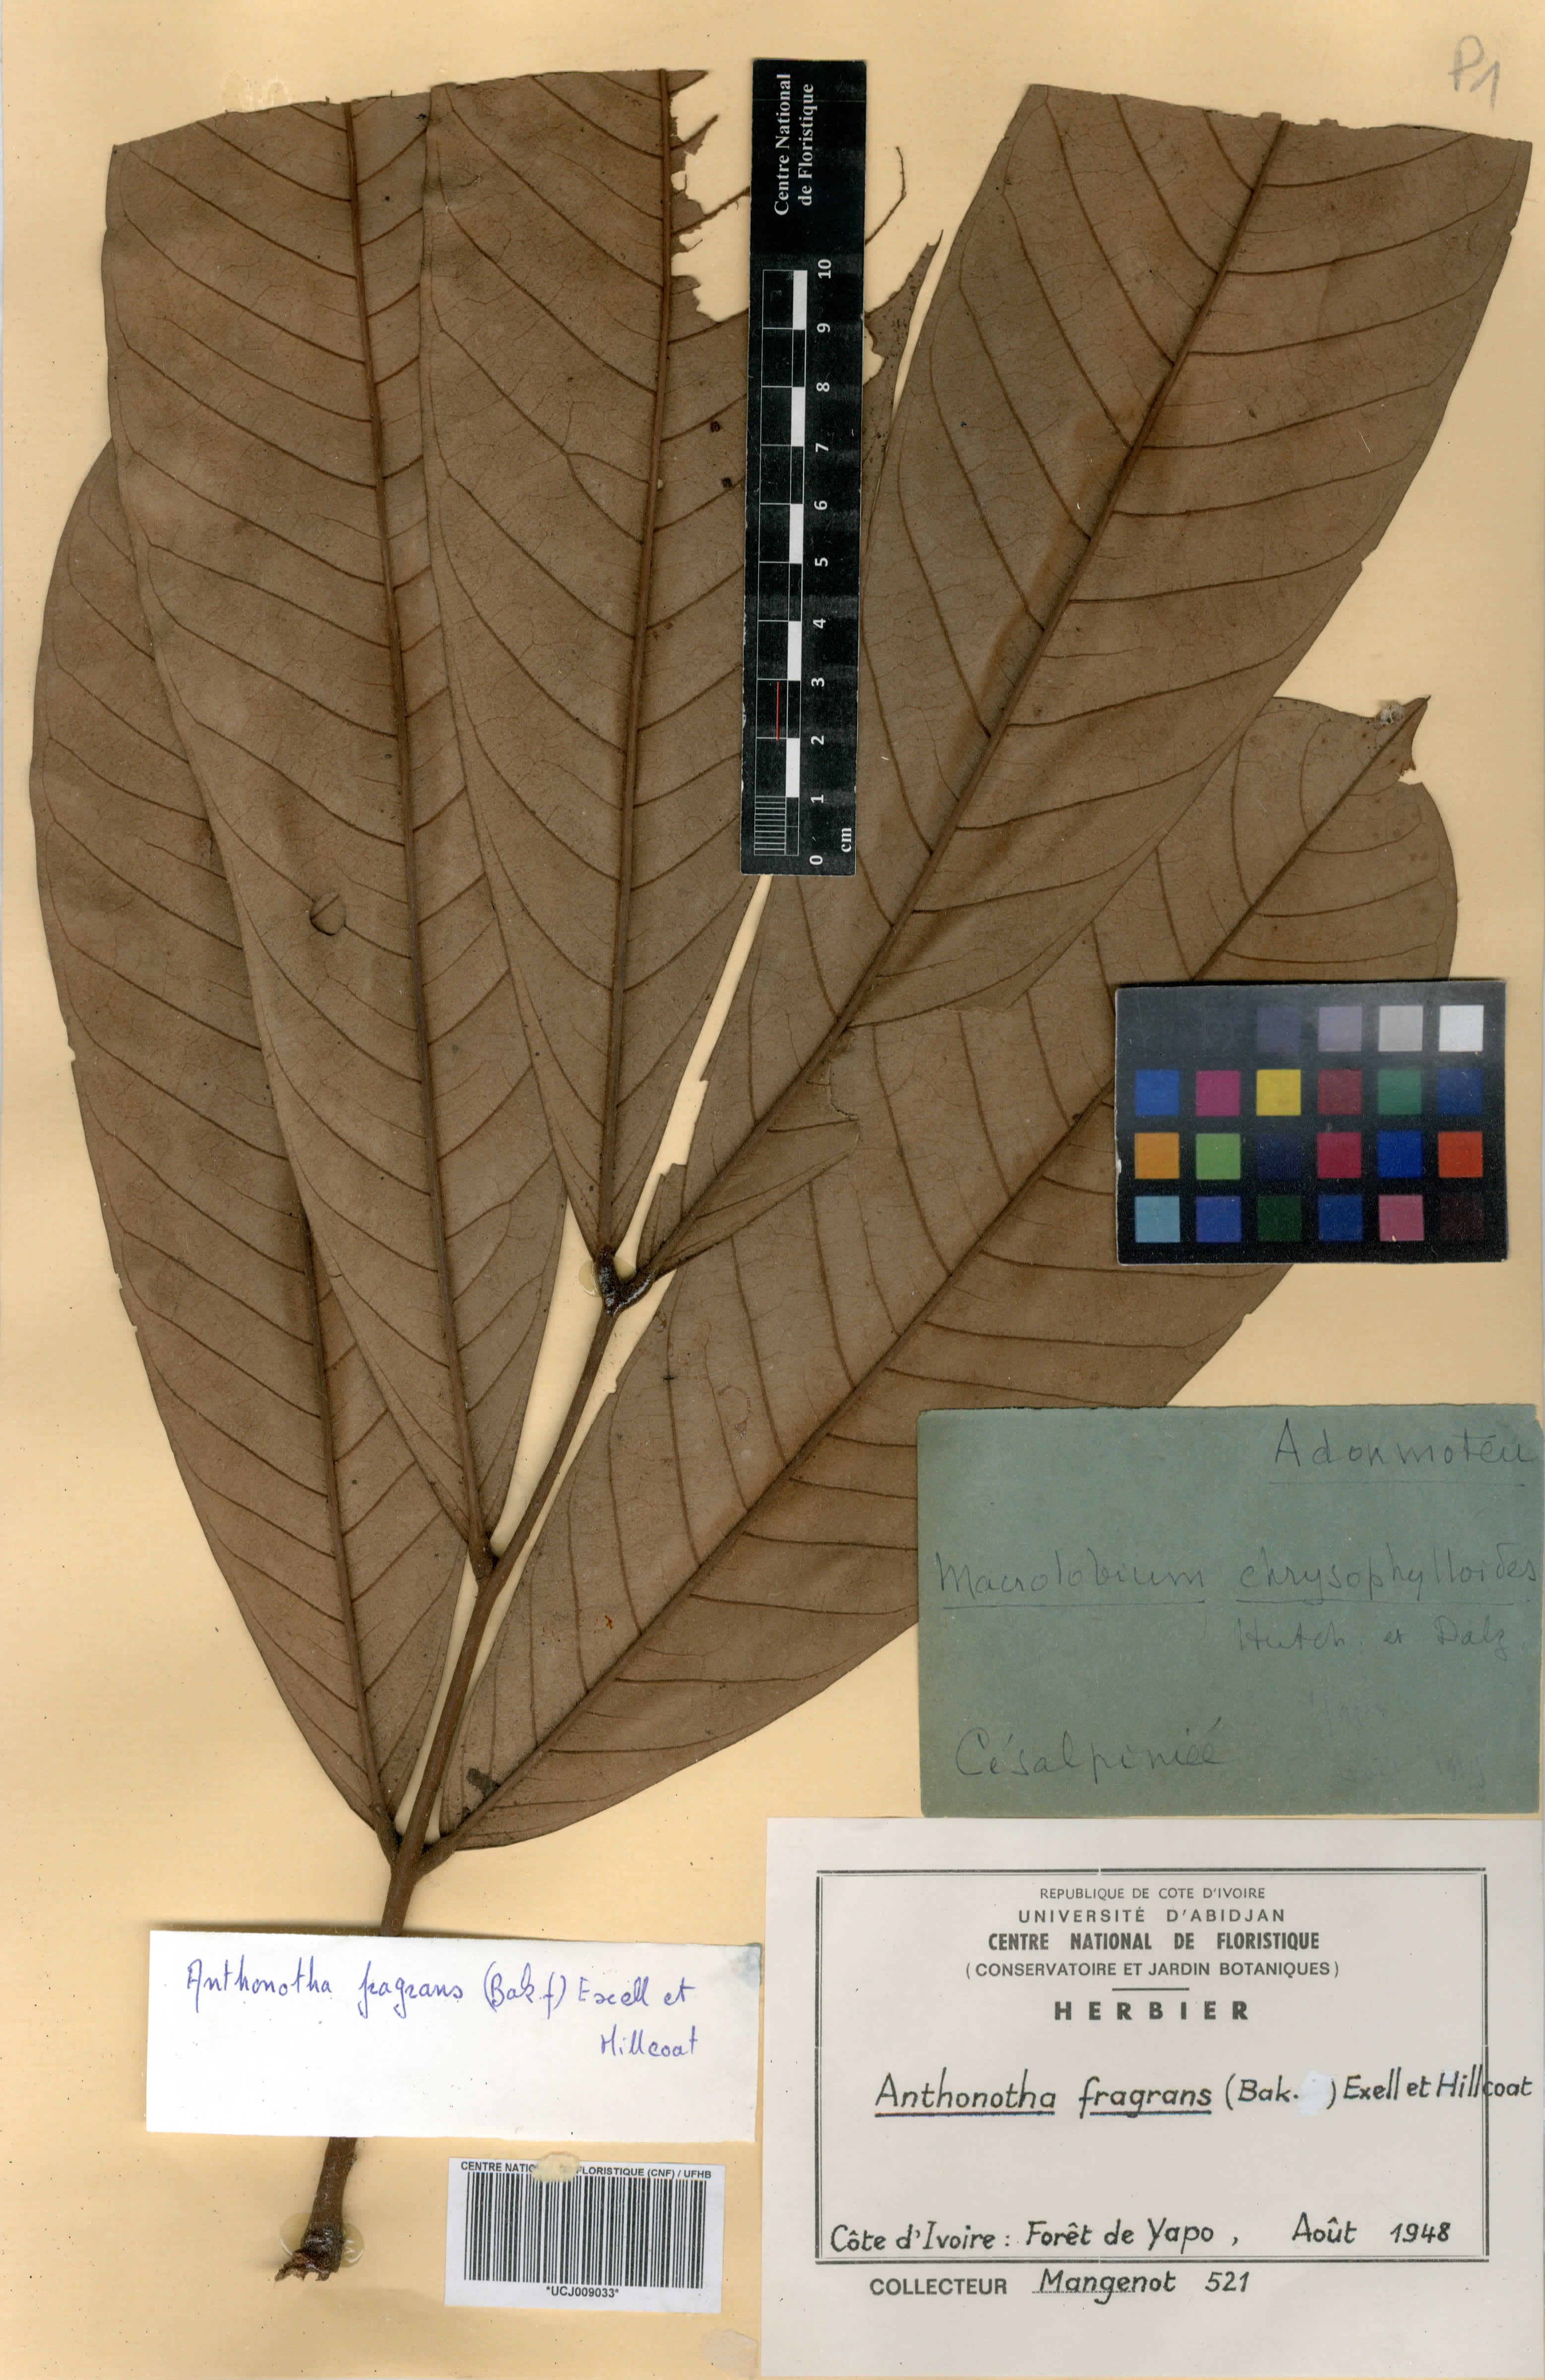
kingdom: Plantae
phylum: Tracheophyta
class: Magnoliopsida
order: Fabales
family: Fabaceae
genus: Anthonotha
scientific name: Anthonotha fragrans
